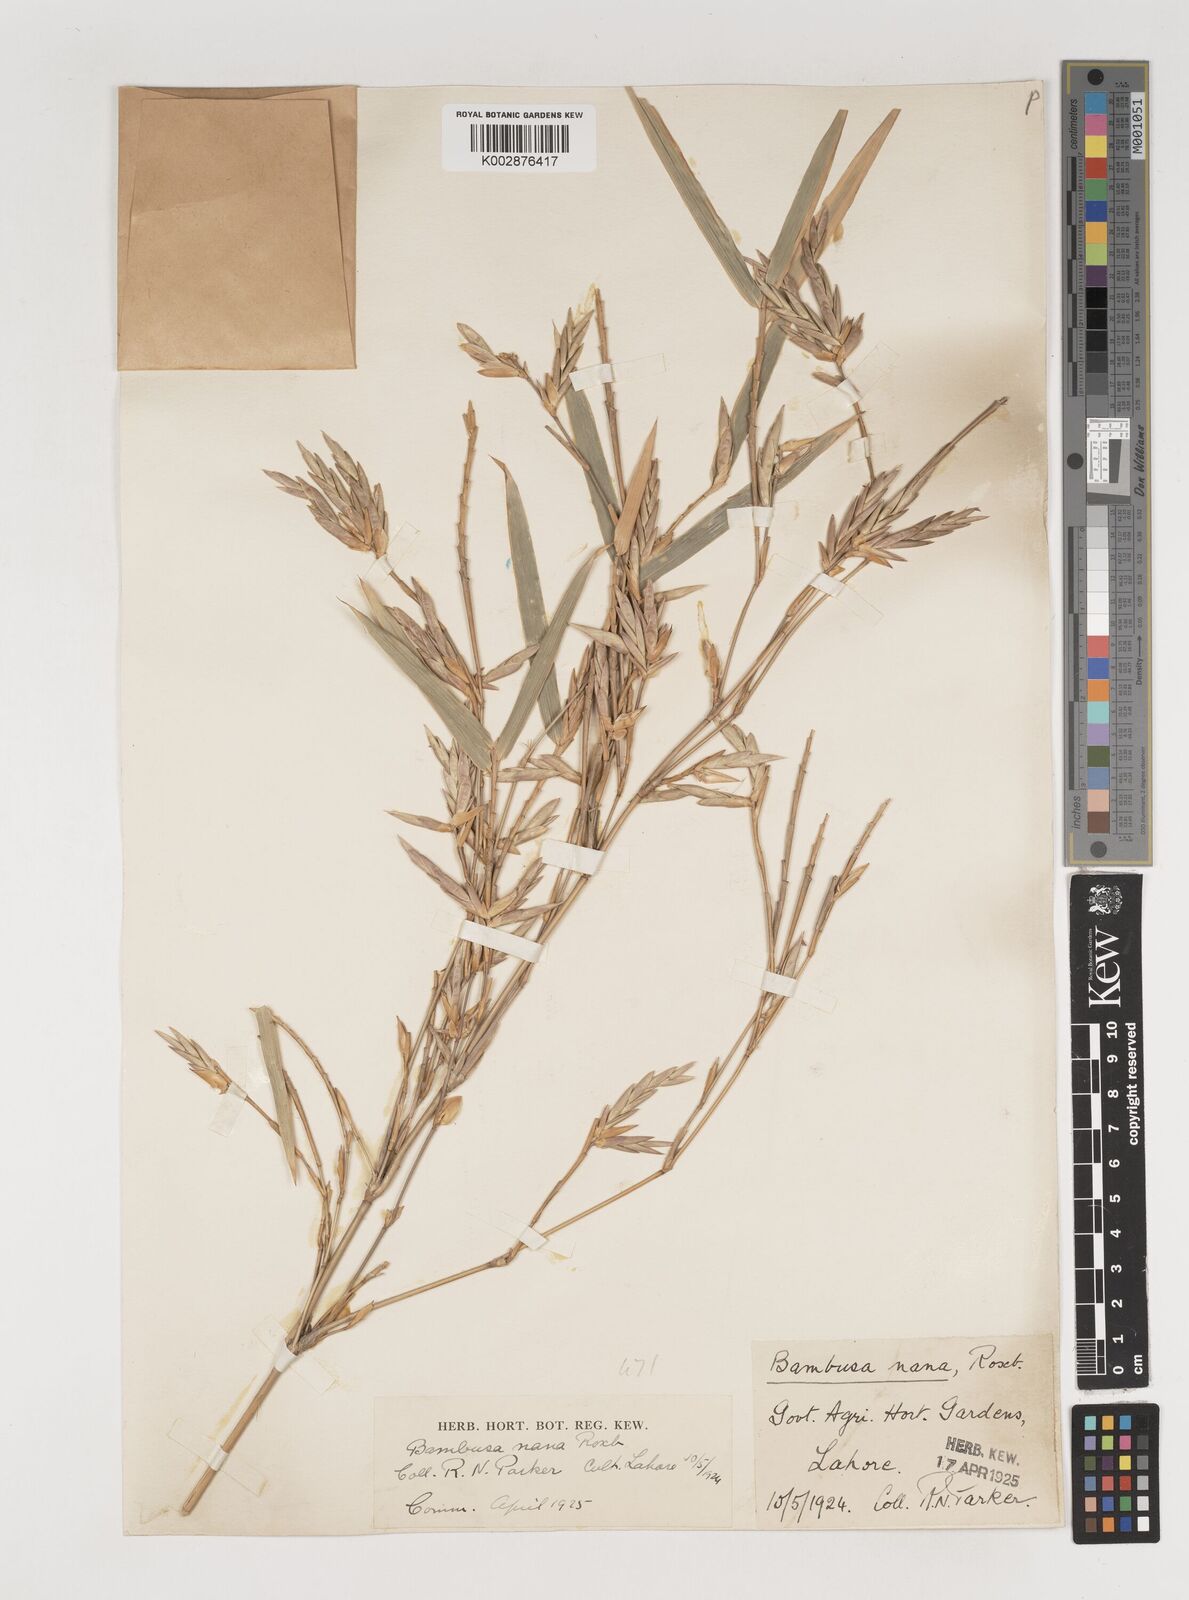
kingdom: Plantae
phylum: Tracheophyta
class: Liliopsida
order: Poales
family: Poaceae
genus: Bambusa
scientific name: Bambusa multiplex
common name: Hedge bamboo
